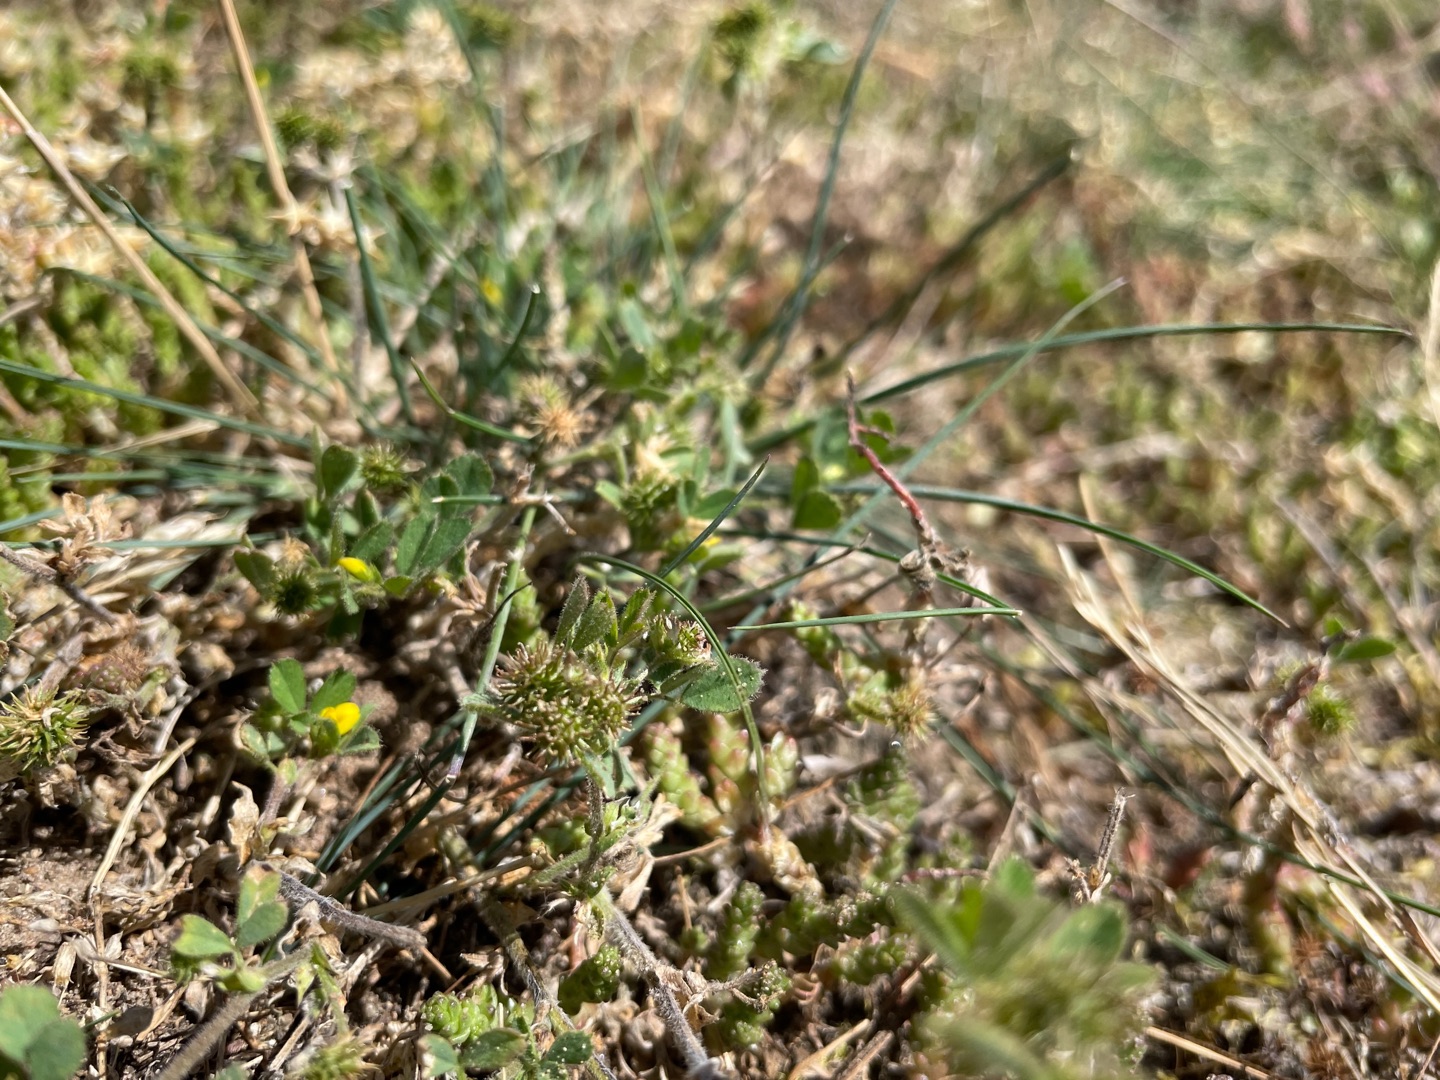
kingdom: Plantae
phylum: Tracheophyta
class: Magnoliopsida
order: Fabales
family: Fabaceae
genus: Medicago
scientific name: Medicago minima
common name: Liden sneglebælg
